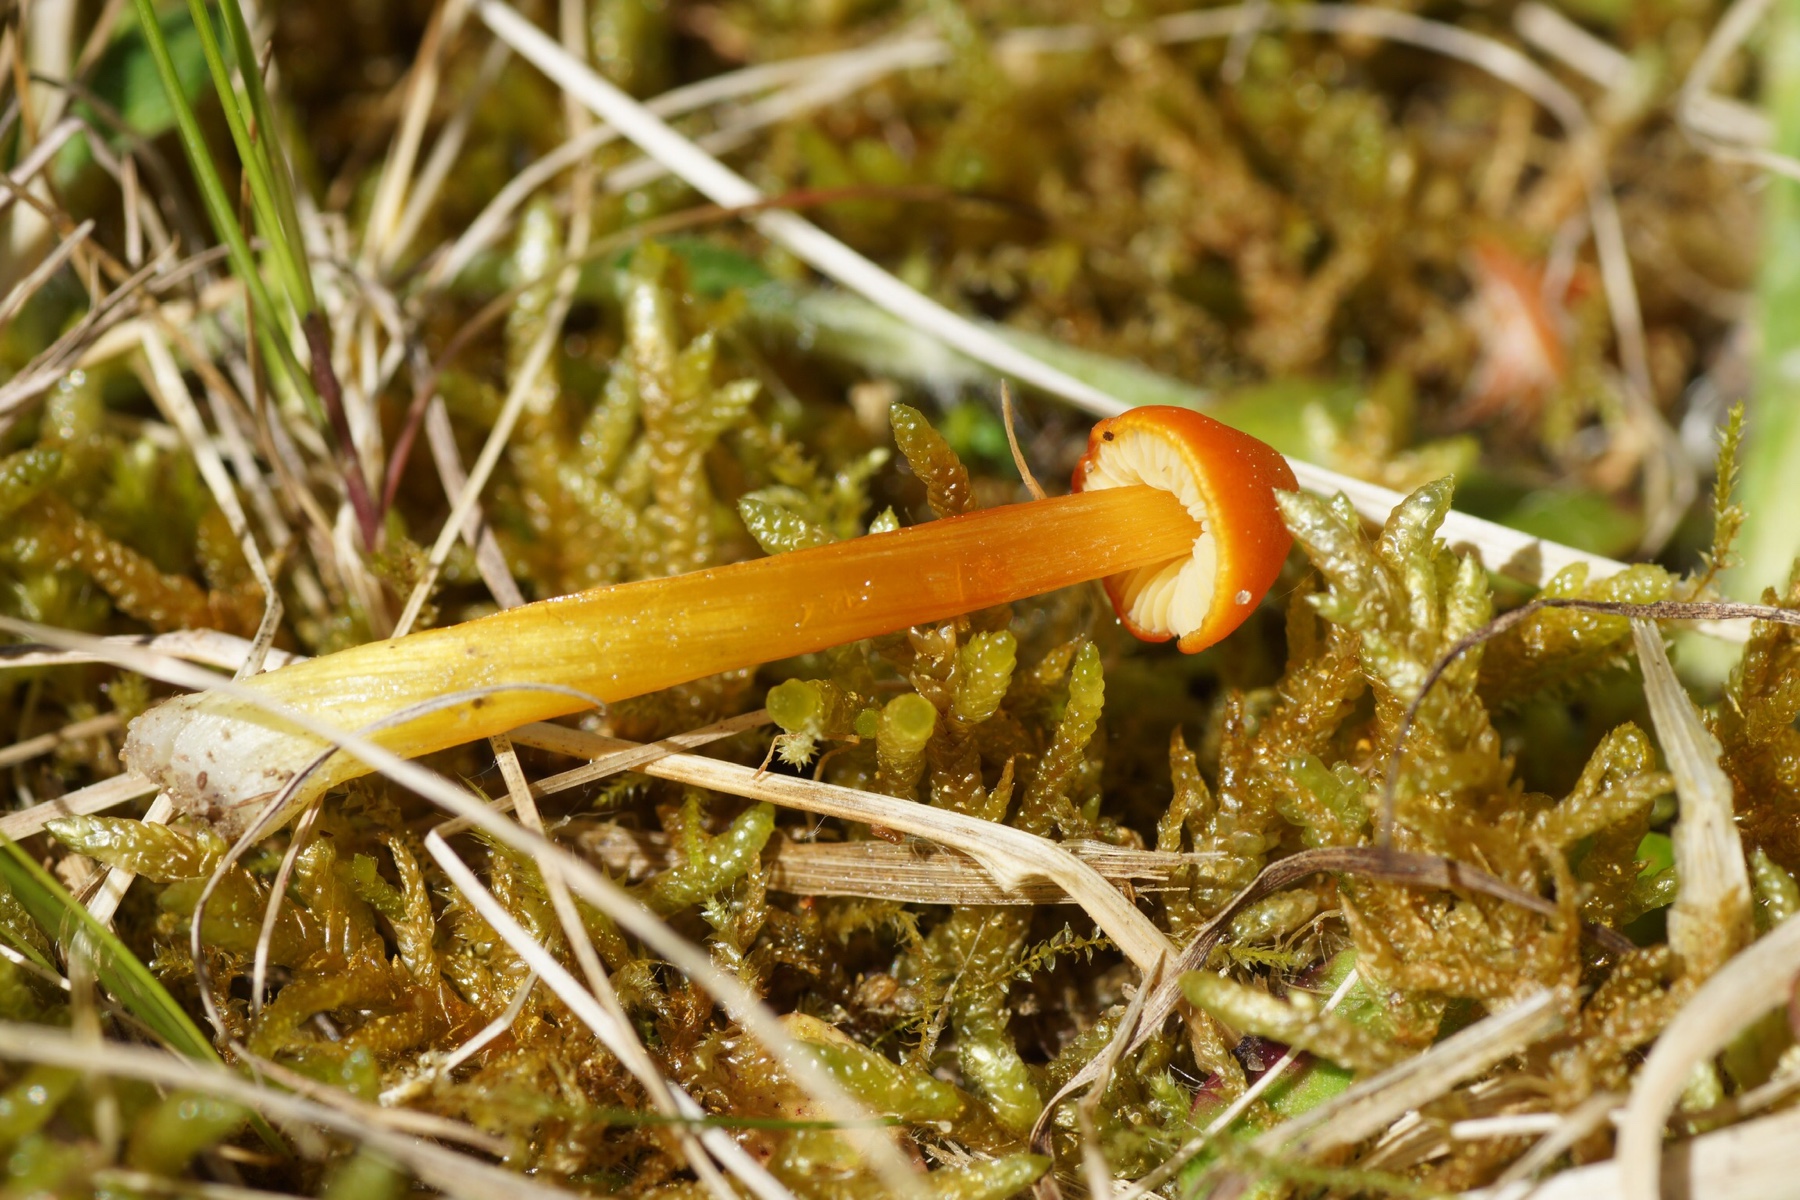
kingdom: Fungi
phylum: Basidiomycota
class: Agaricomycetes
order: Agaricales
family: Hygrophoraceae
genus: Hygrocybe
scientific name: Hygrocybe conica
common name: kegle-vokshat
